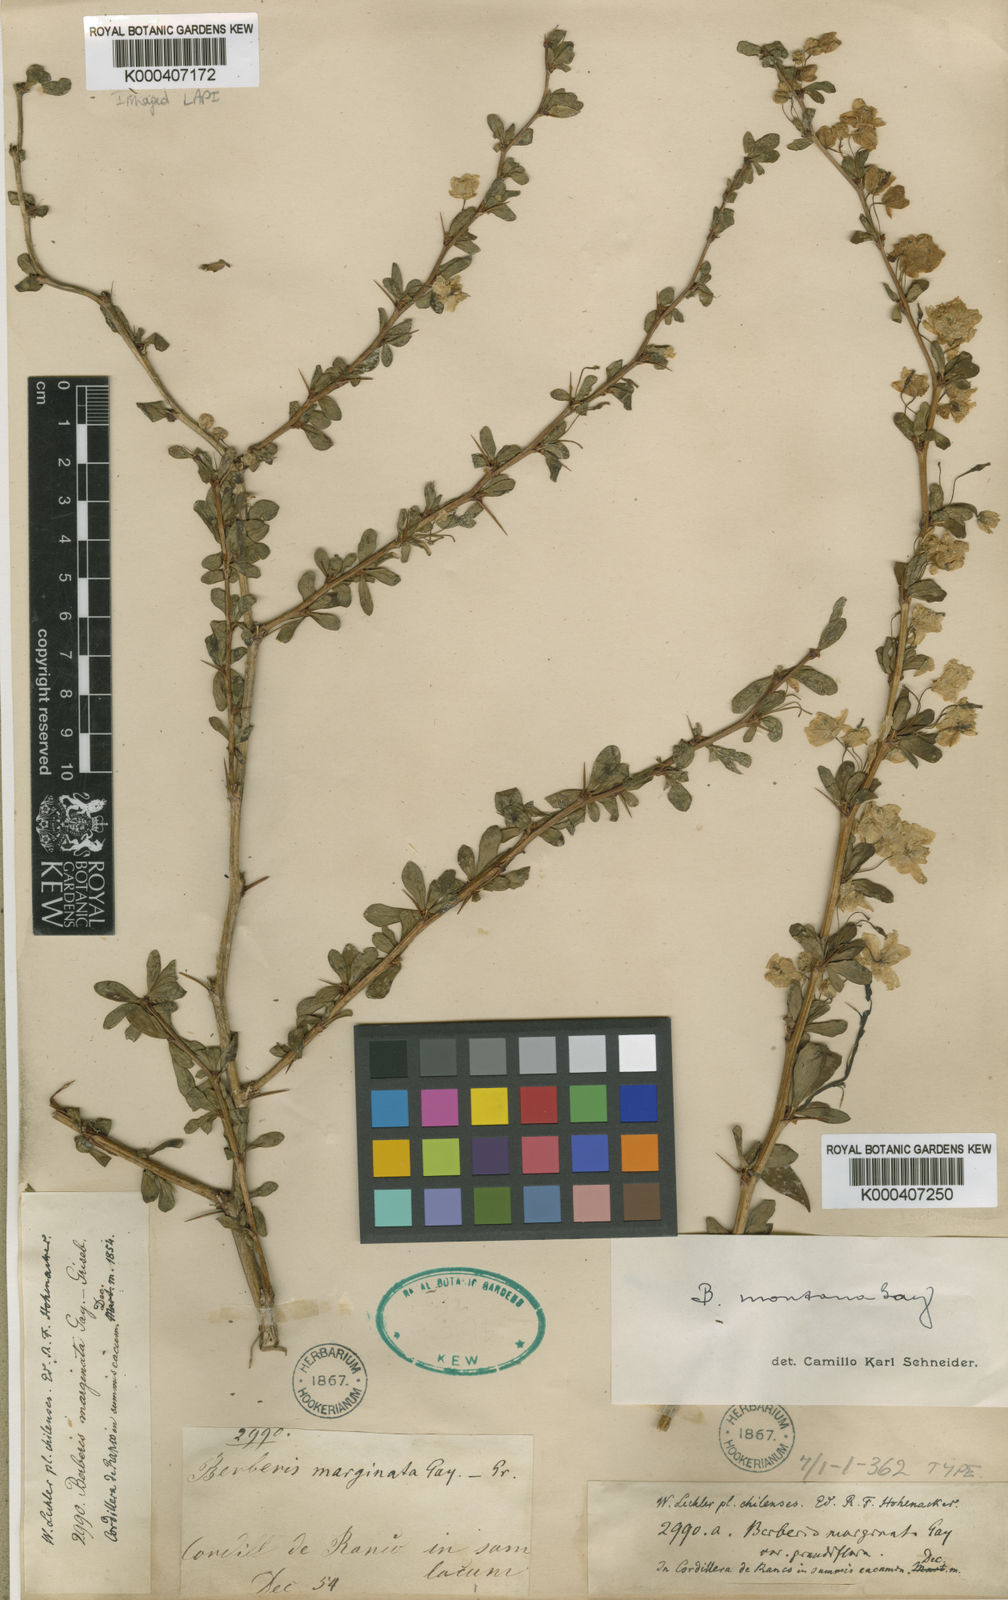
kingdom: Plantae
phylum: Tracheophyta
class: Magnoliopsida
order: Ranunculales
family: Berberidaceae
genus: Berberis
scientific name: Berberis montana
